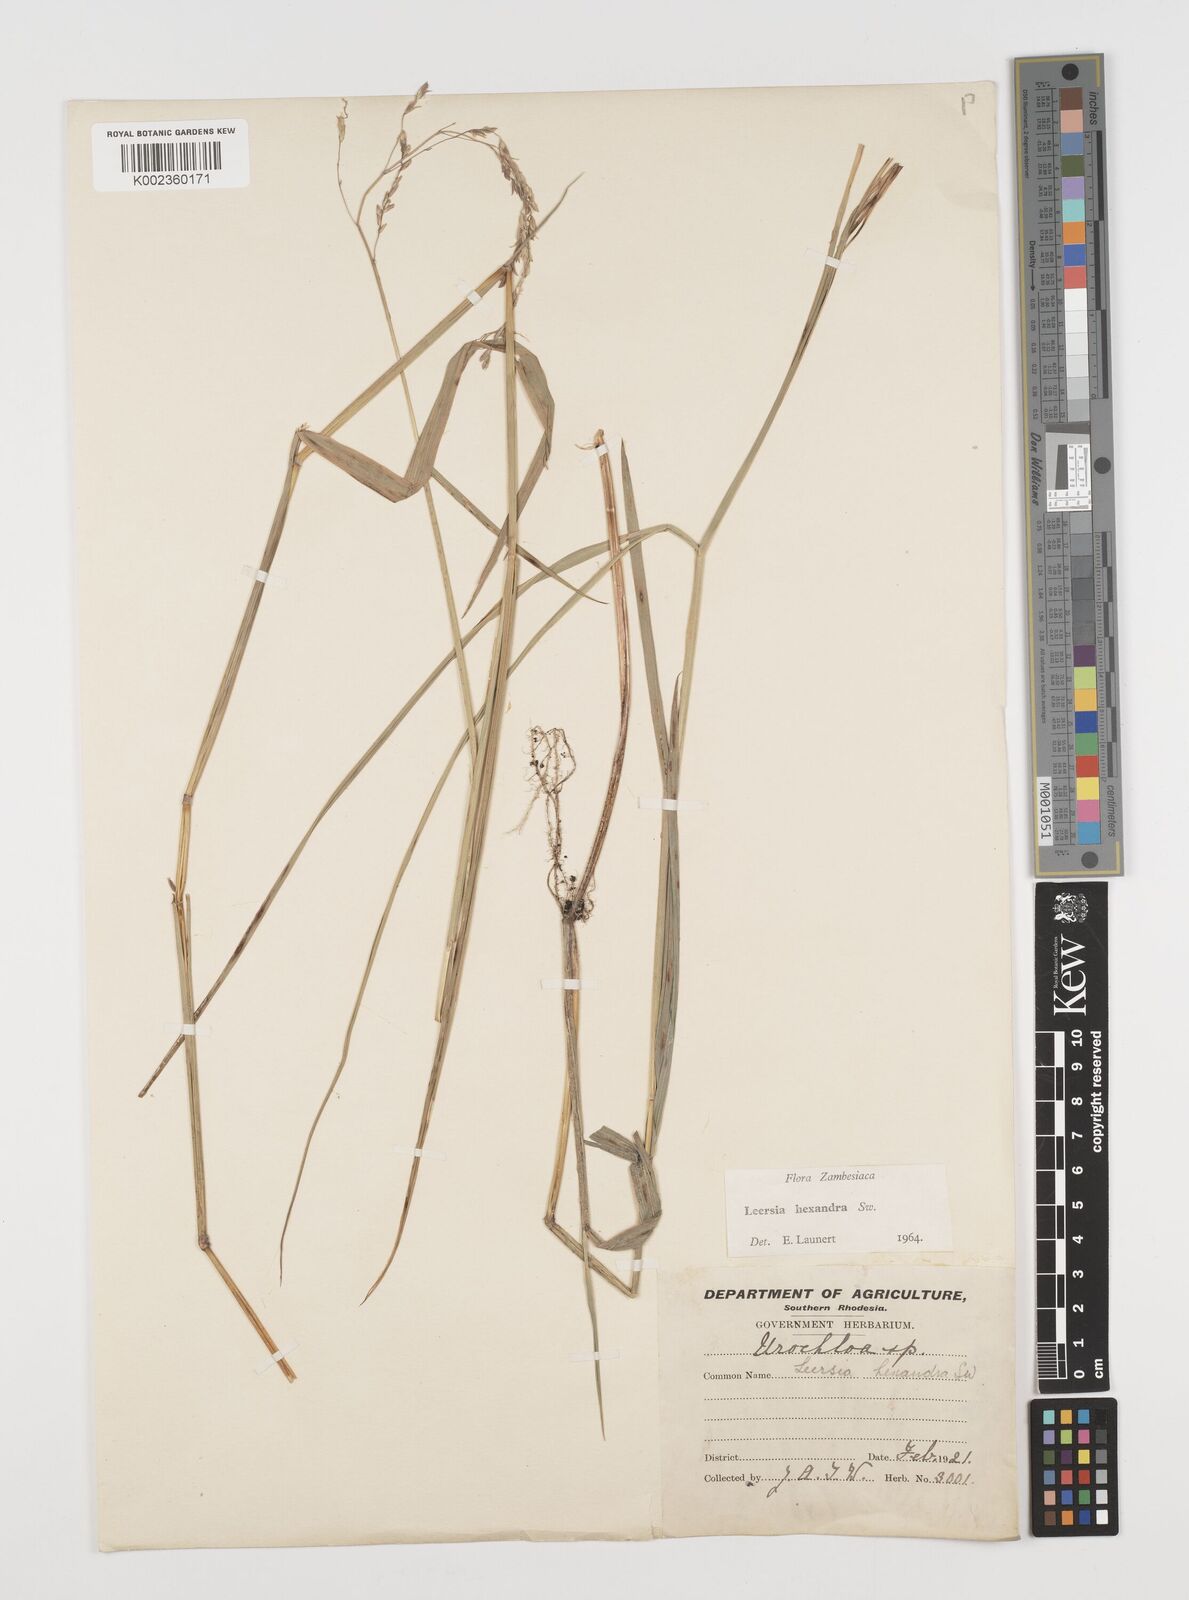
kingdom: Plantae
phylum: Tracheophyta
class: Liliopsida
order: Poales
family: Poaceae
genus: Leersia
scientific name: Leersia hexandra
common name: Southern cut grass
